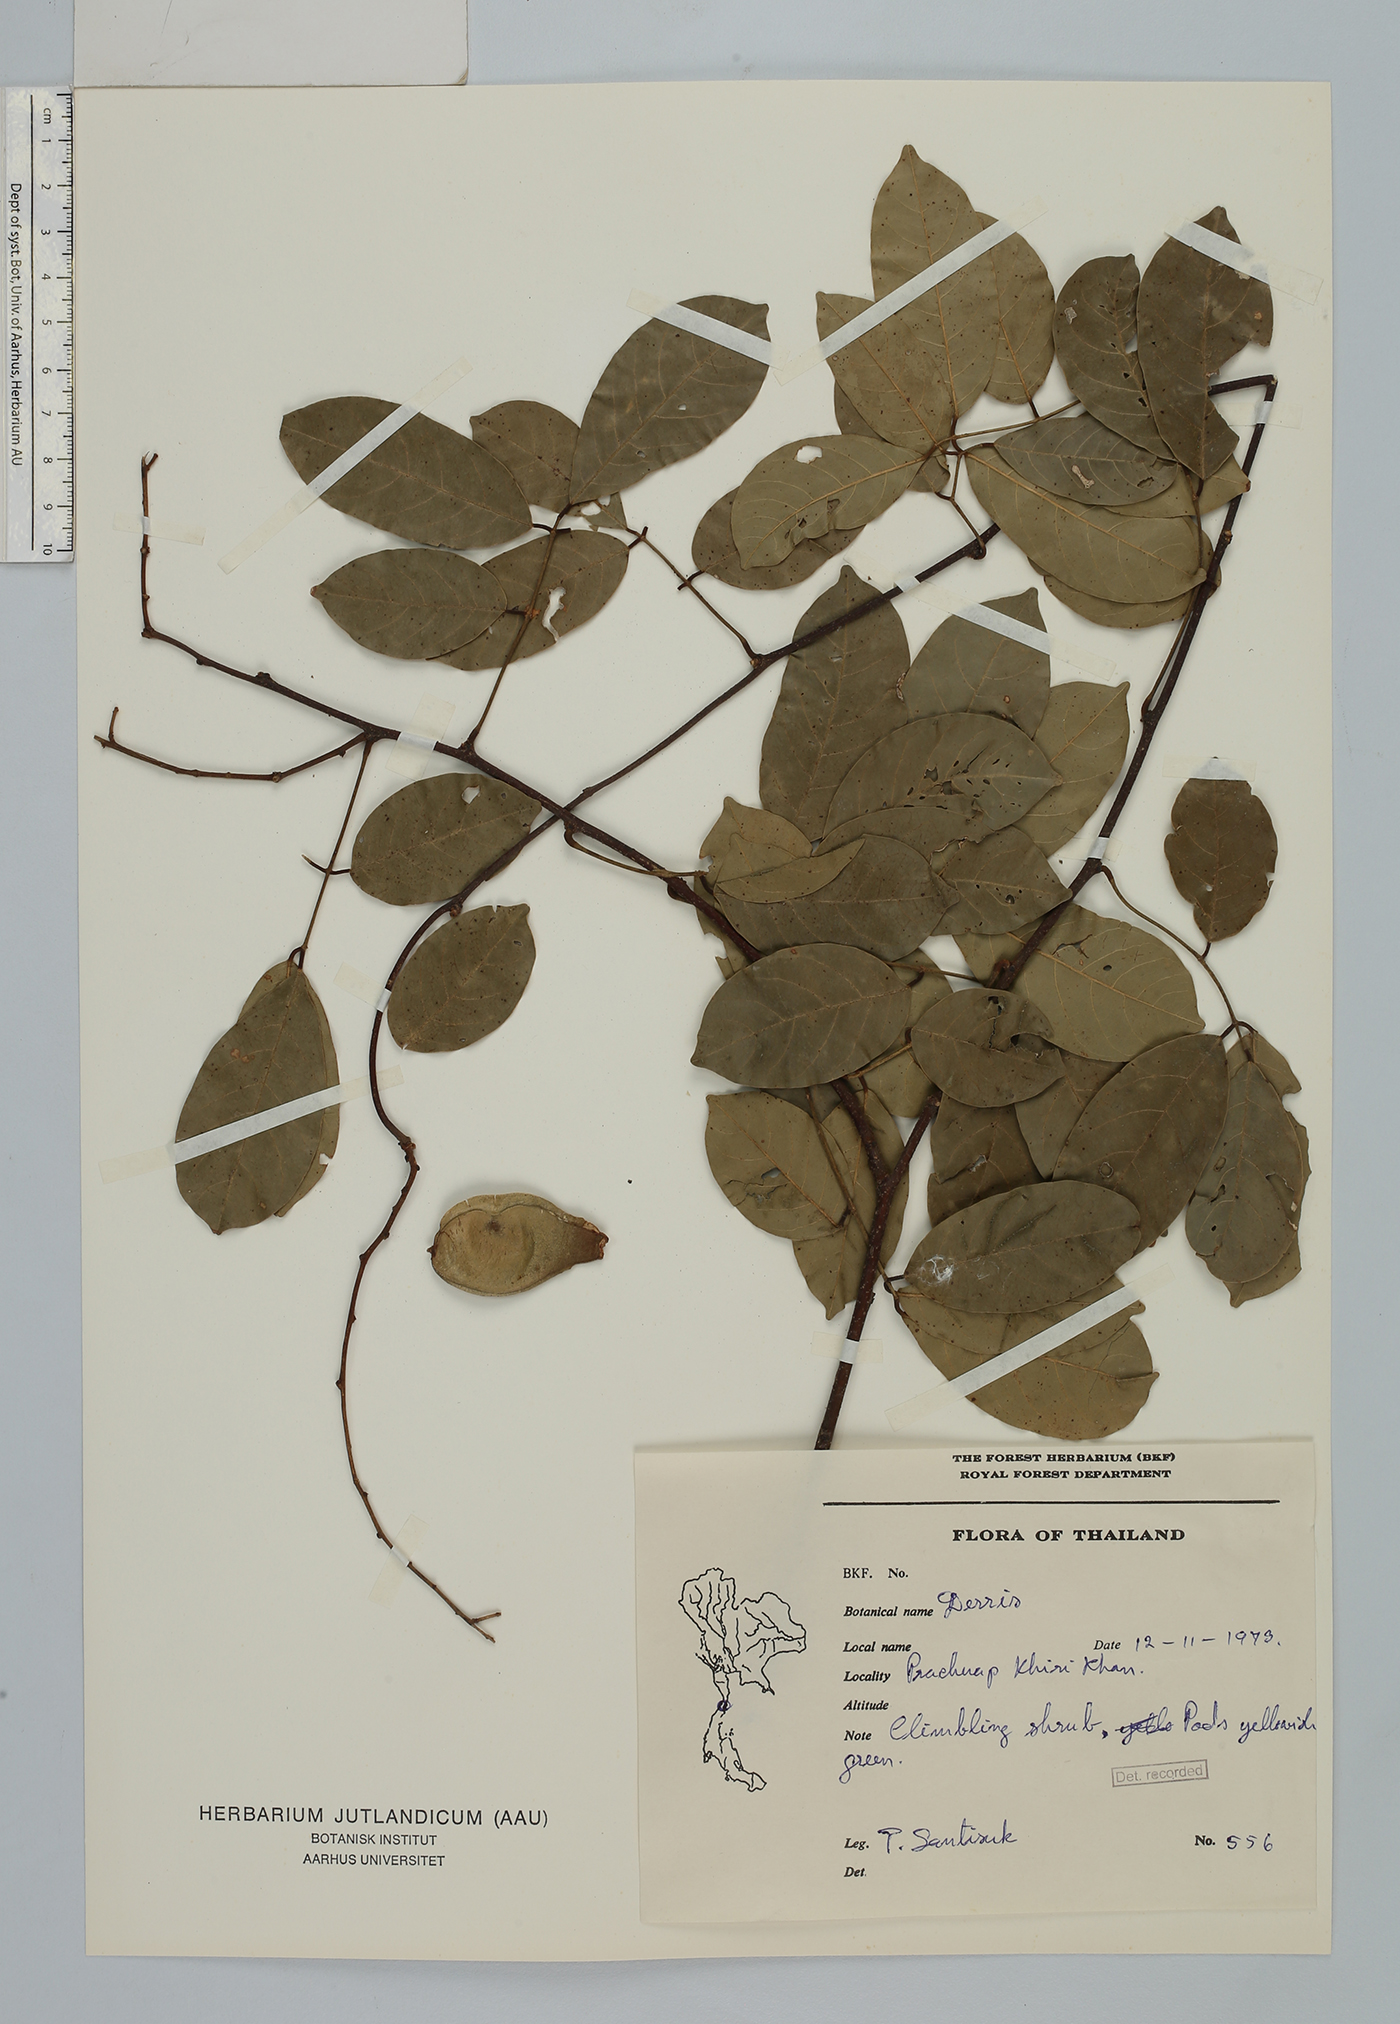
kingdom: Plantae
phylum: Tracheophyta
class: Magnoliopsida
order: Fabales
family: Fabaceae
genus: Derris
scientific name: Derris
